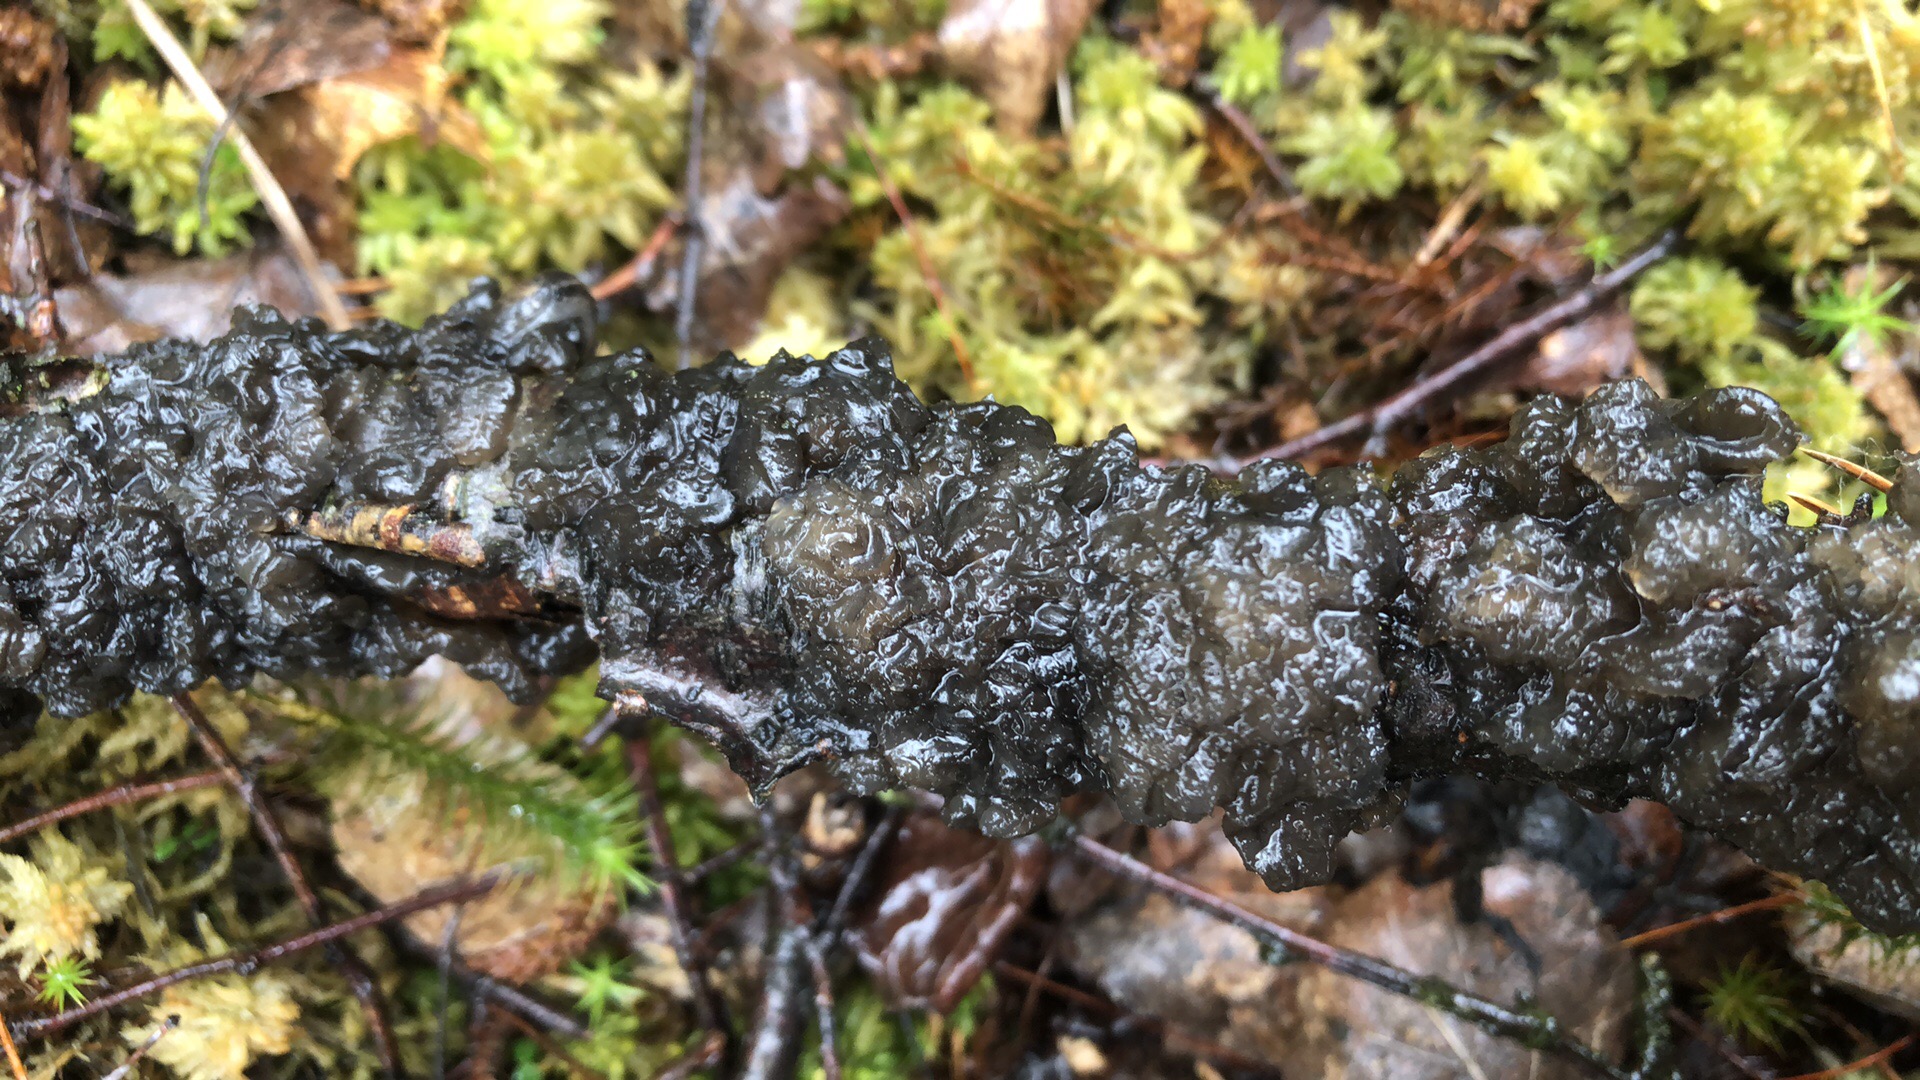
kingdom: Fungi
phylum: Basidiomycota
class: Agaricomycetes
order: Auriculariales
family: Auriculariaceae
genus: Exidia
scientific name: Exidia nigricans
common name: almindelig bævretop
